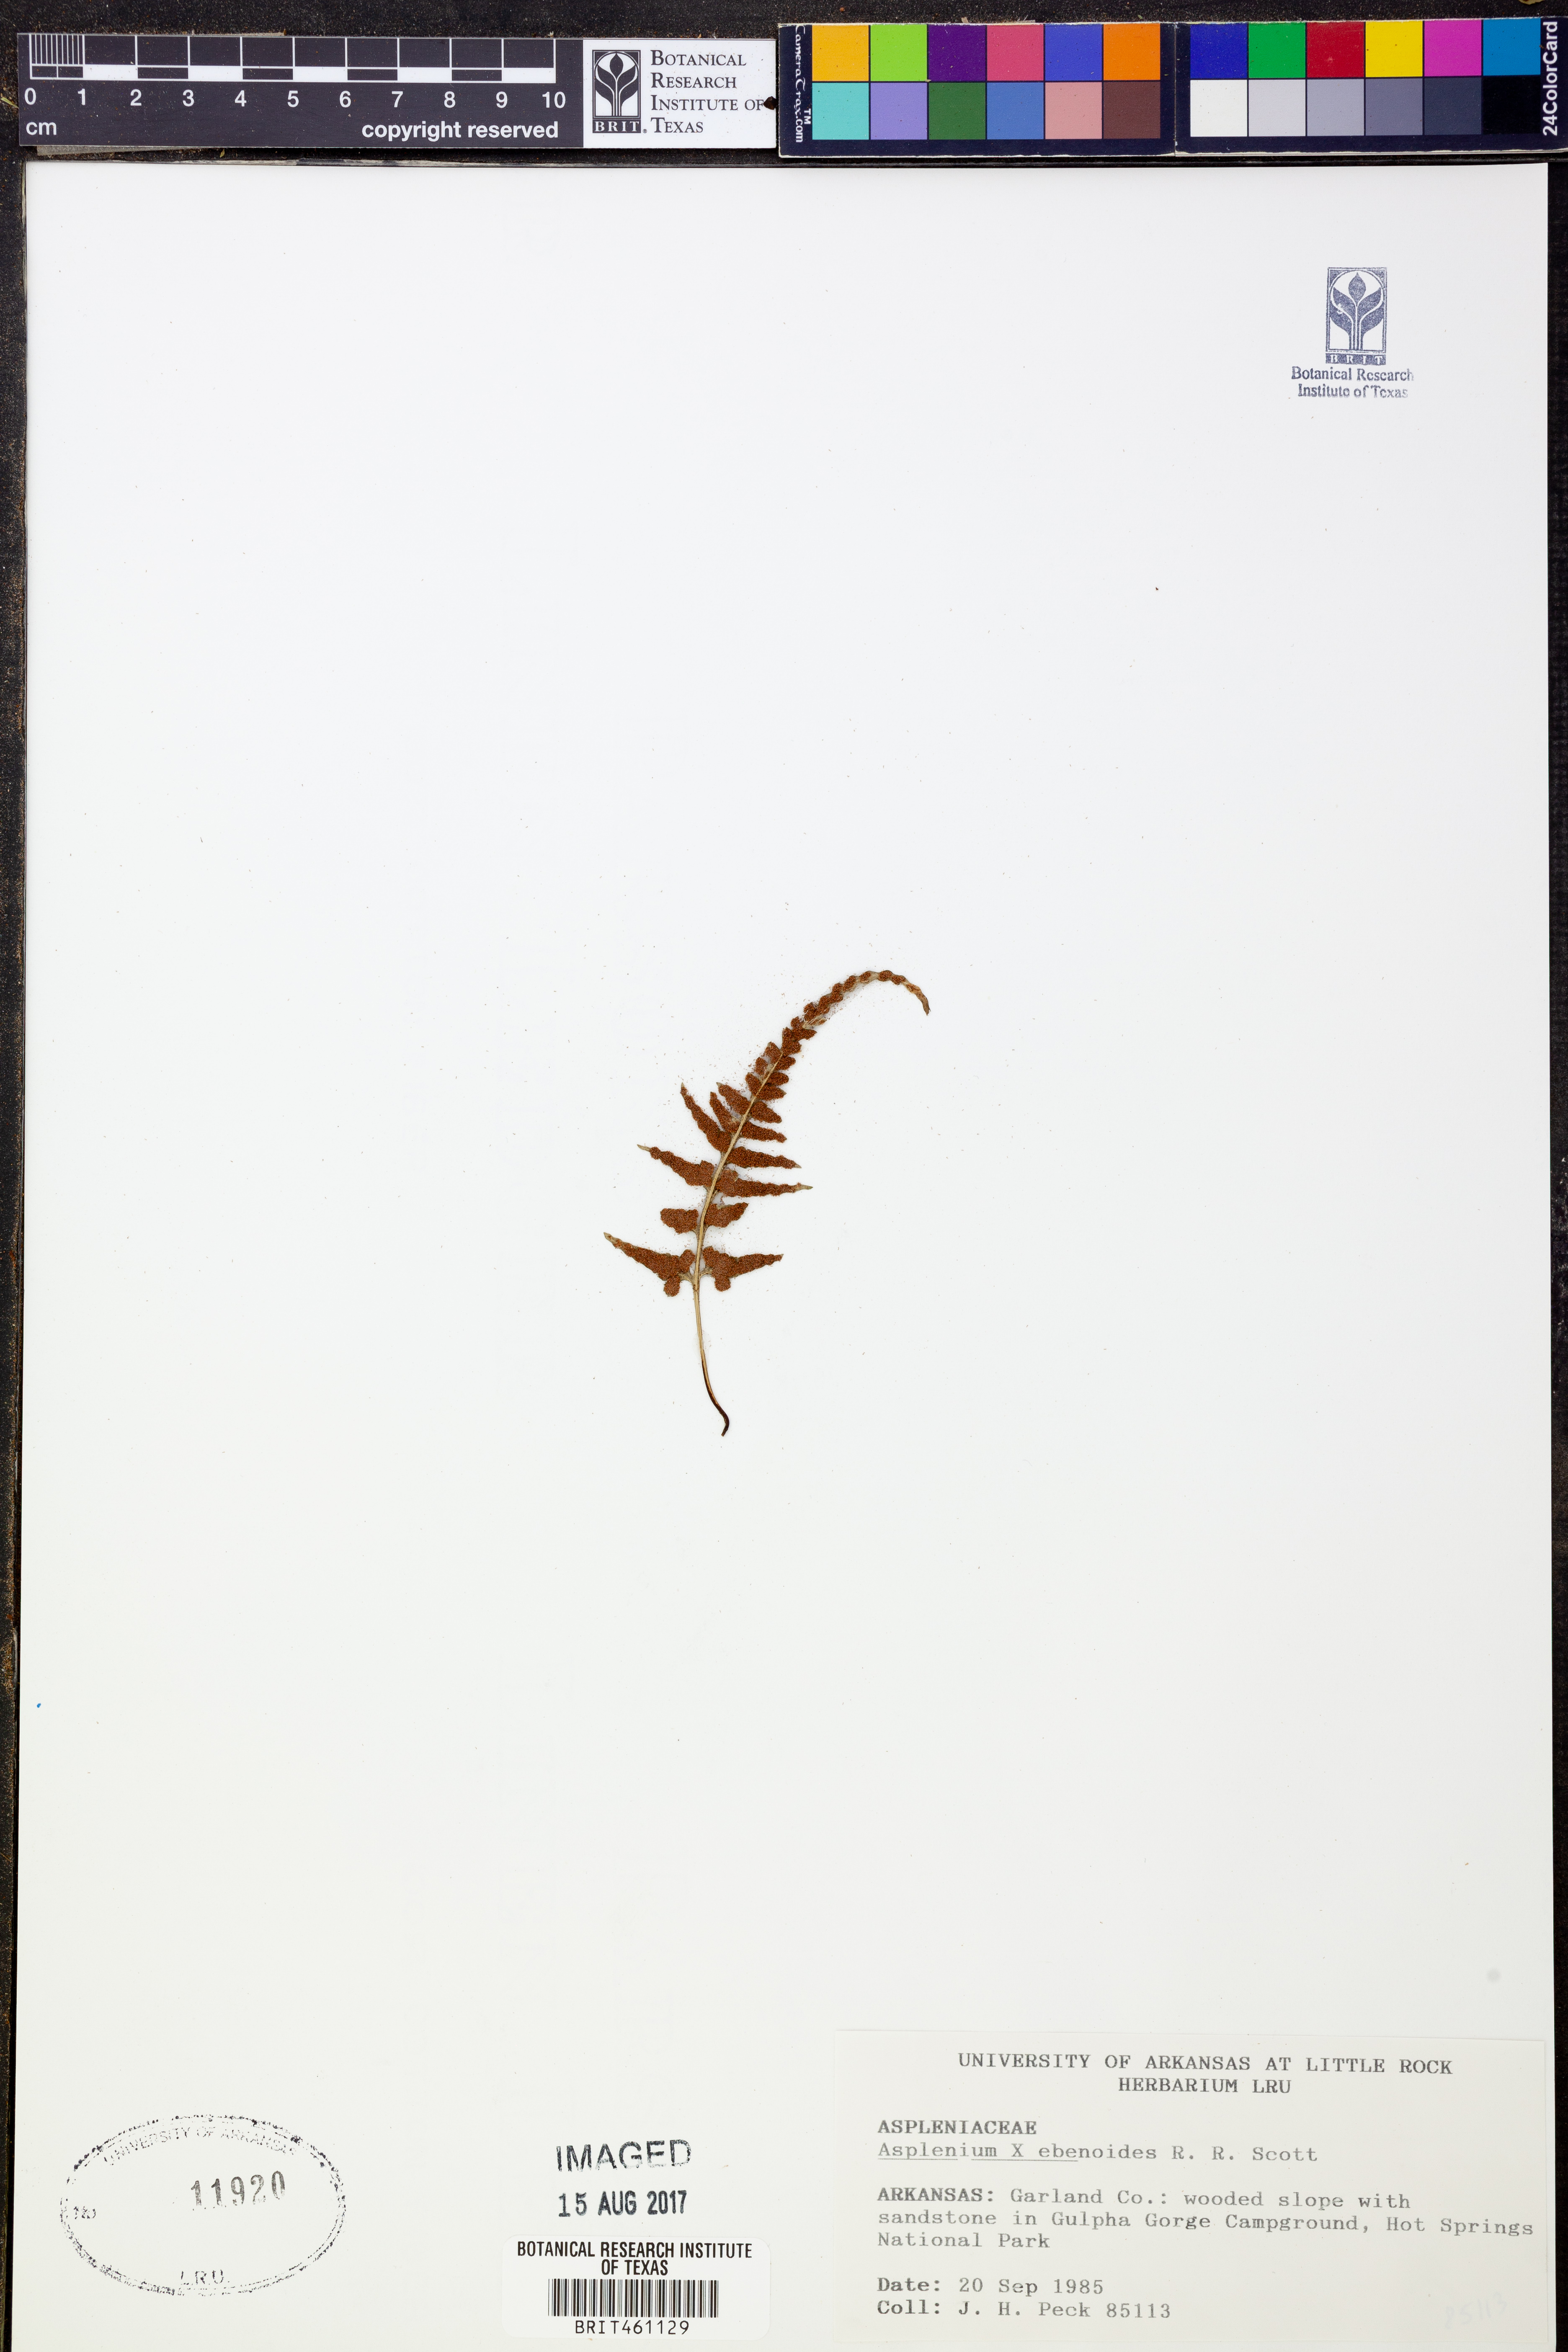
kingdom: Plantae
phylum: Tracheophyta
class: Polypodiopsida
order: Polypodiales
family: Aspleniaceae
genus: Asplenium
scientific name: Asplenium ebenoides
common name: Dragon-tail fern
